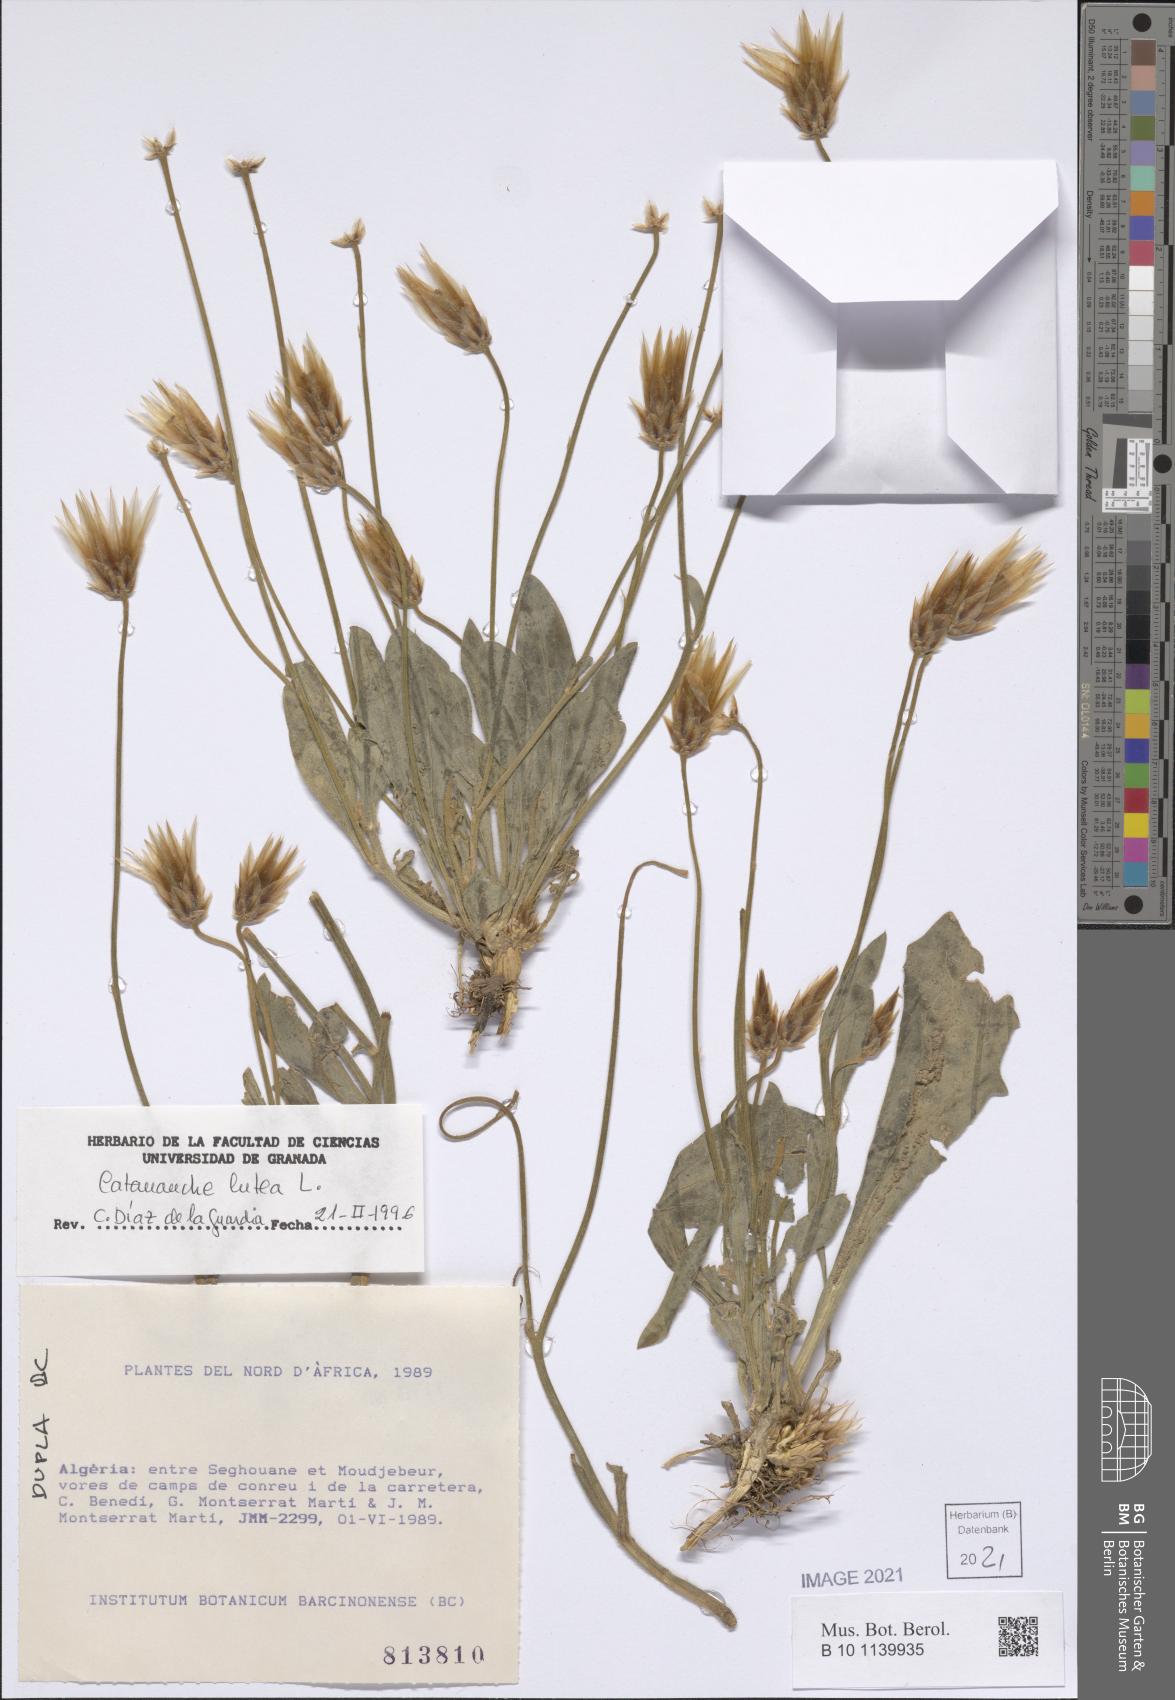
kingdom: Plantae
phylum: Tracheophyta
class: Magnoliopsida
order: Asterales
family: Asteraceae
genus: Catananche
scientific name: Catananche lutea
